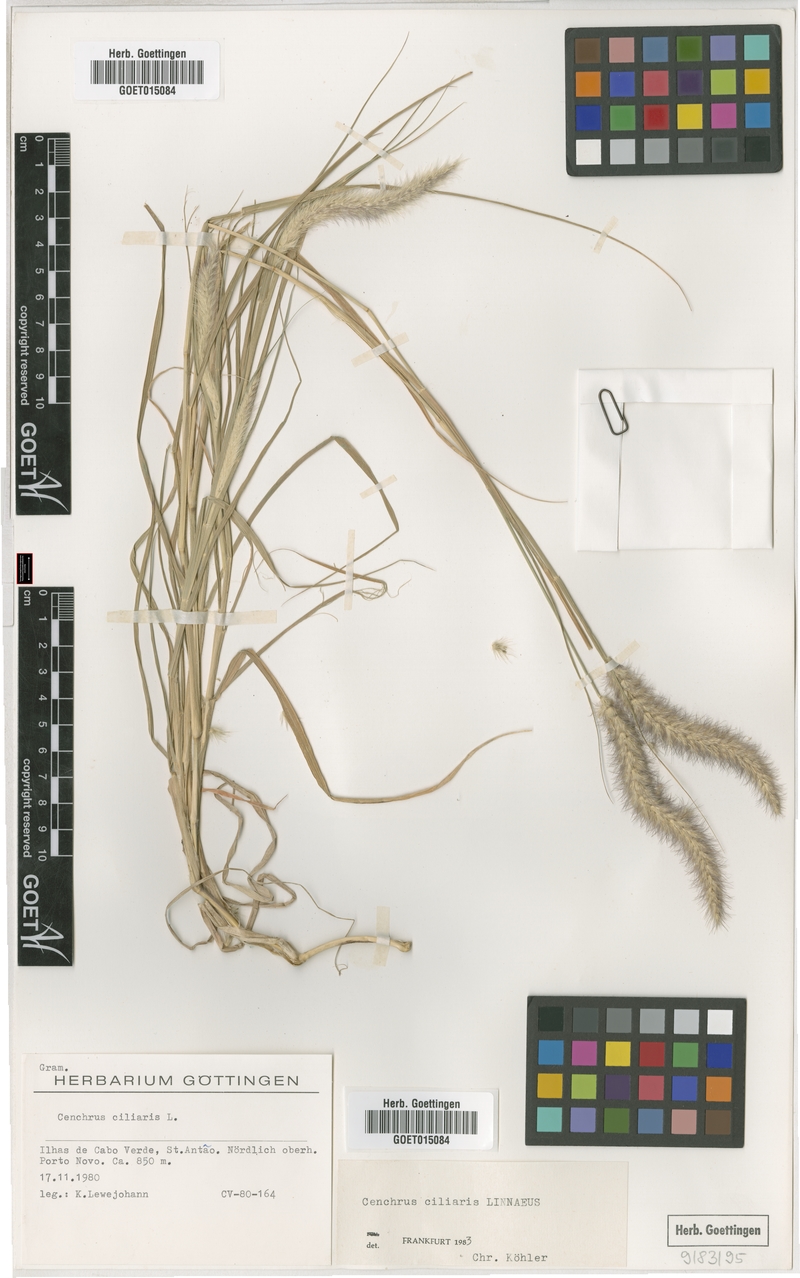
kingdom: Plantae
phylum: Tracheophyta
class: Liliopsida
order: Poales
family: Poaceae
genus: Cenchrus
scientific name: Cenchrus ciliaris
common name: Buffelgrass
